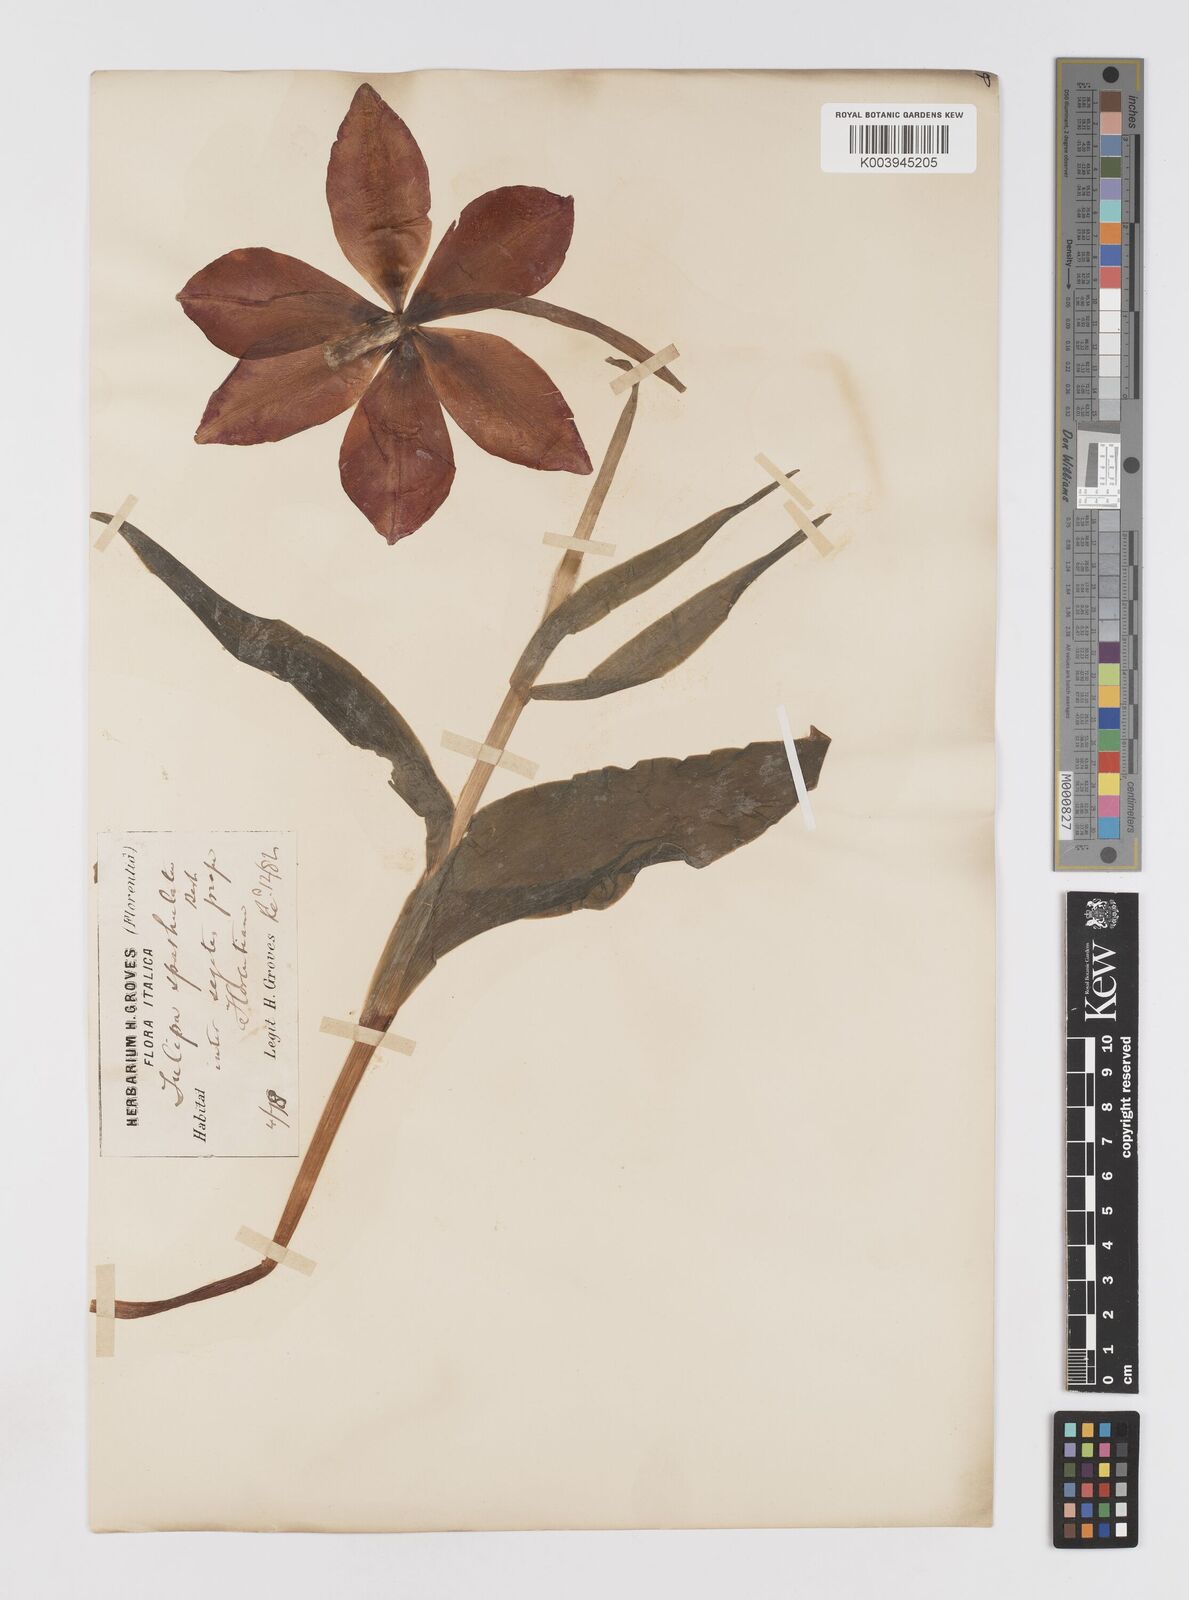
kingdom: Plantae
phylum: Tracheophyta
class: Liliopsida
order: Liliales
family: Liliaceae
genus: Tulipa
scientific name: Tulipa gesneriana
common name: Garden tulip
